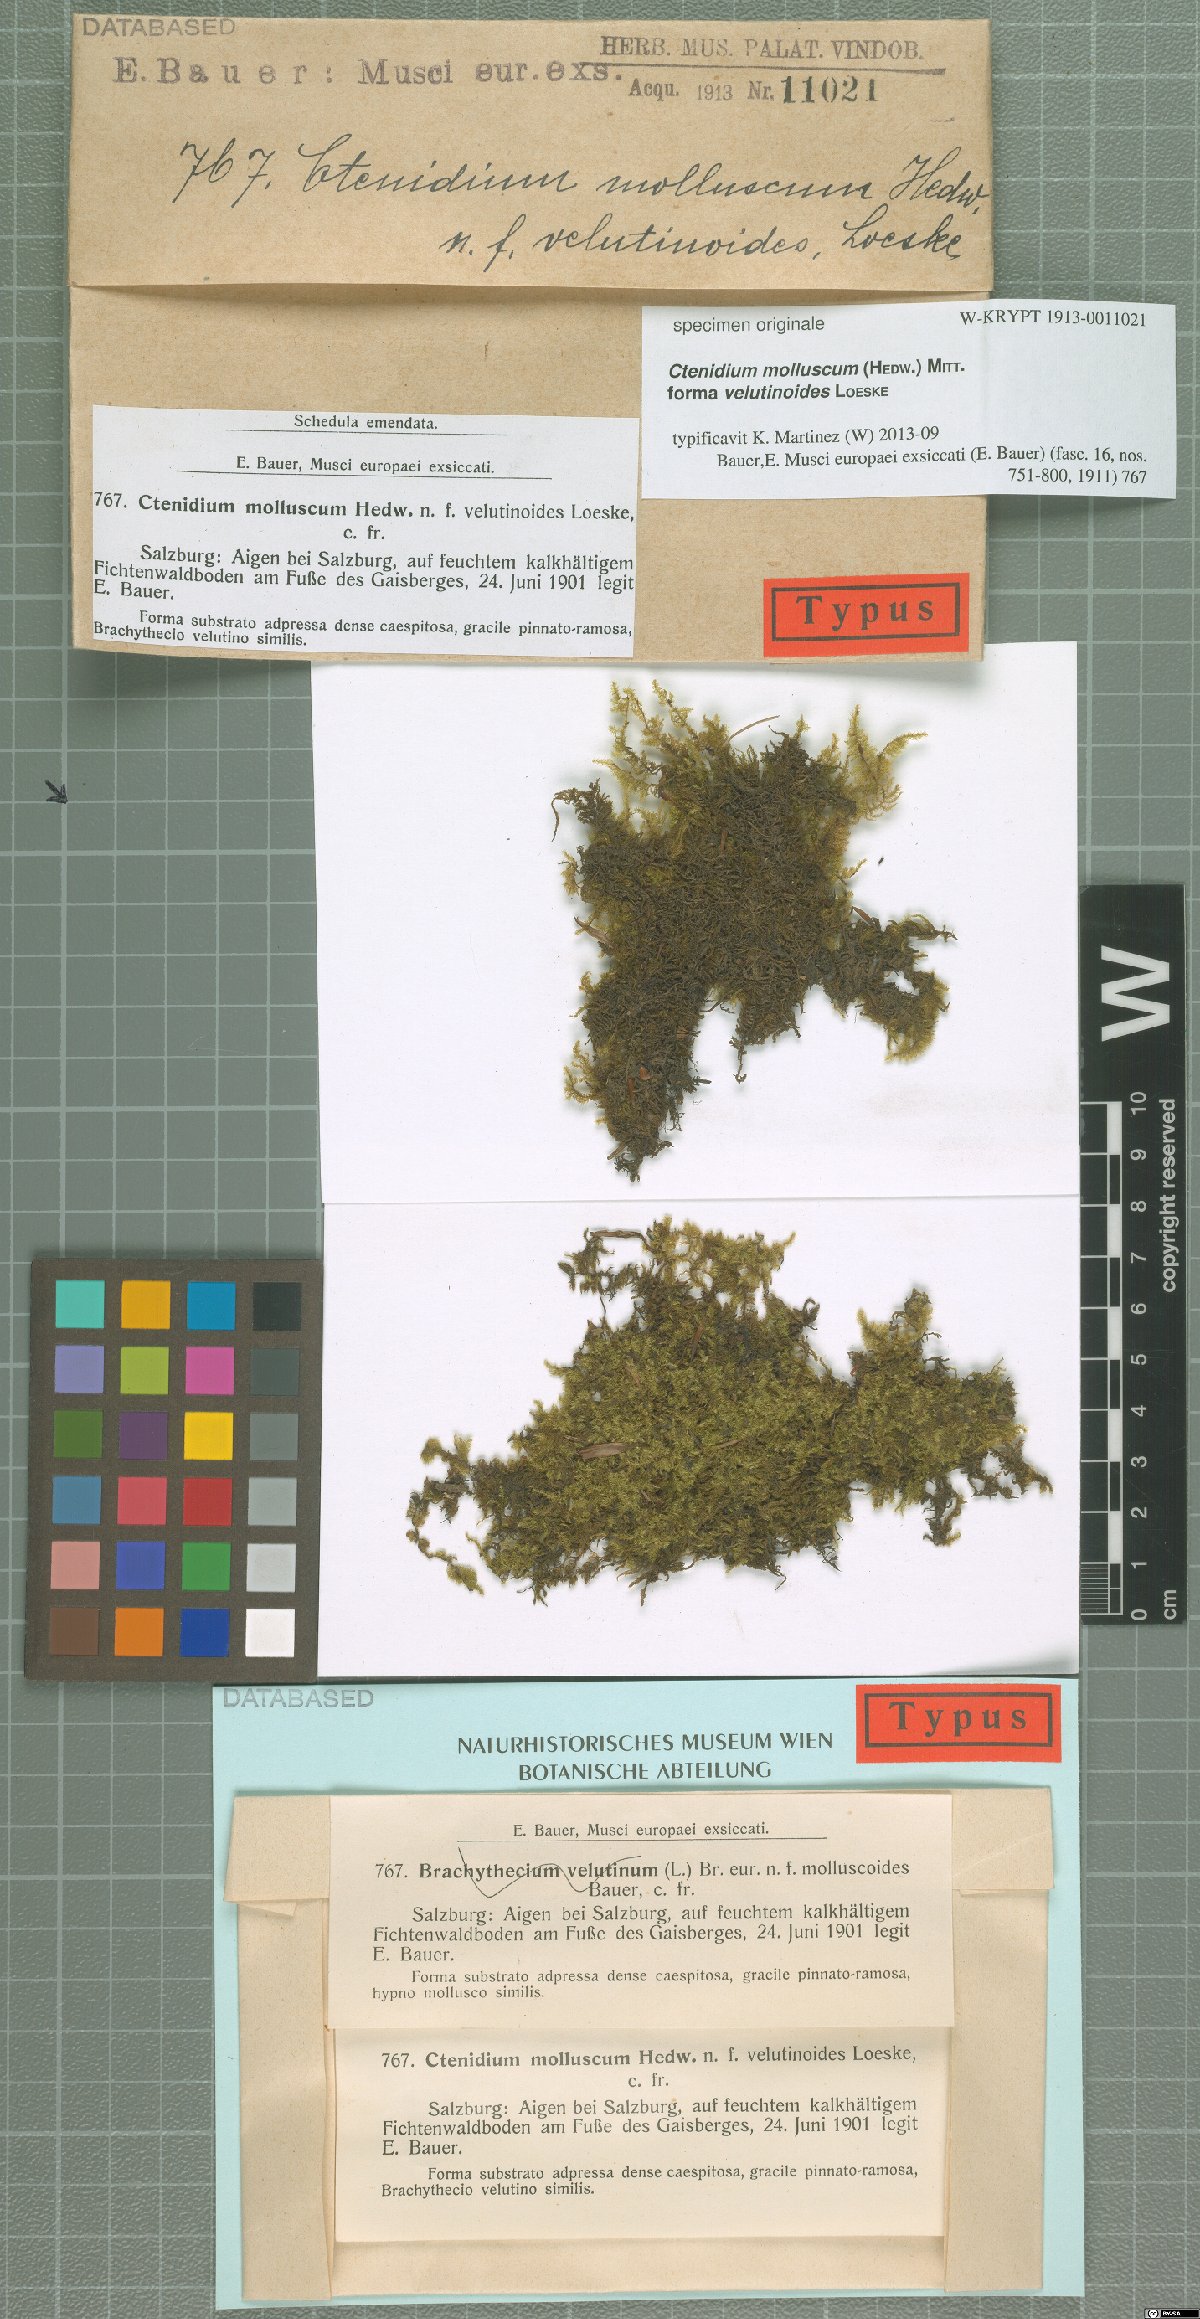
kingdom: Plantae
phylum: Bryophyta
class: Bryopsida
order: Hypnales
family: Myuriaceae
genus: Ctenidium
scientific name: Ctenidium molluscum
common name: Chalk comb-moss
